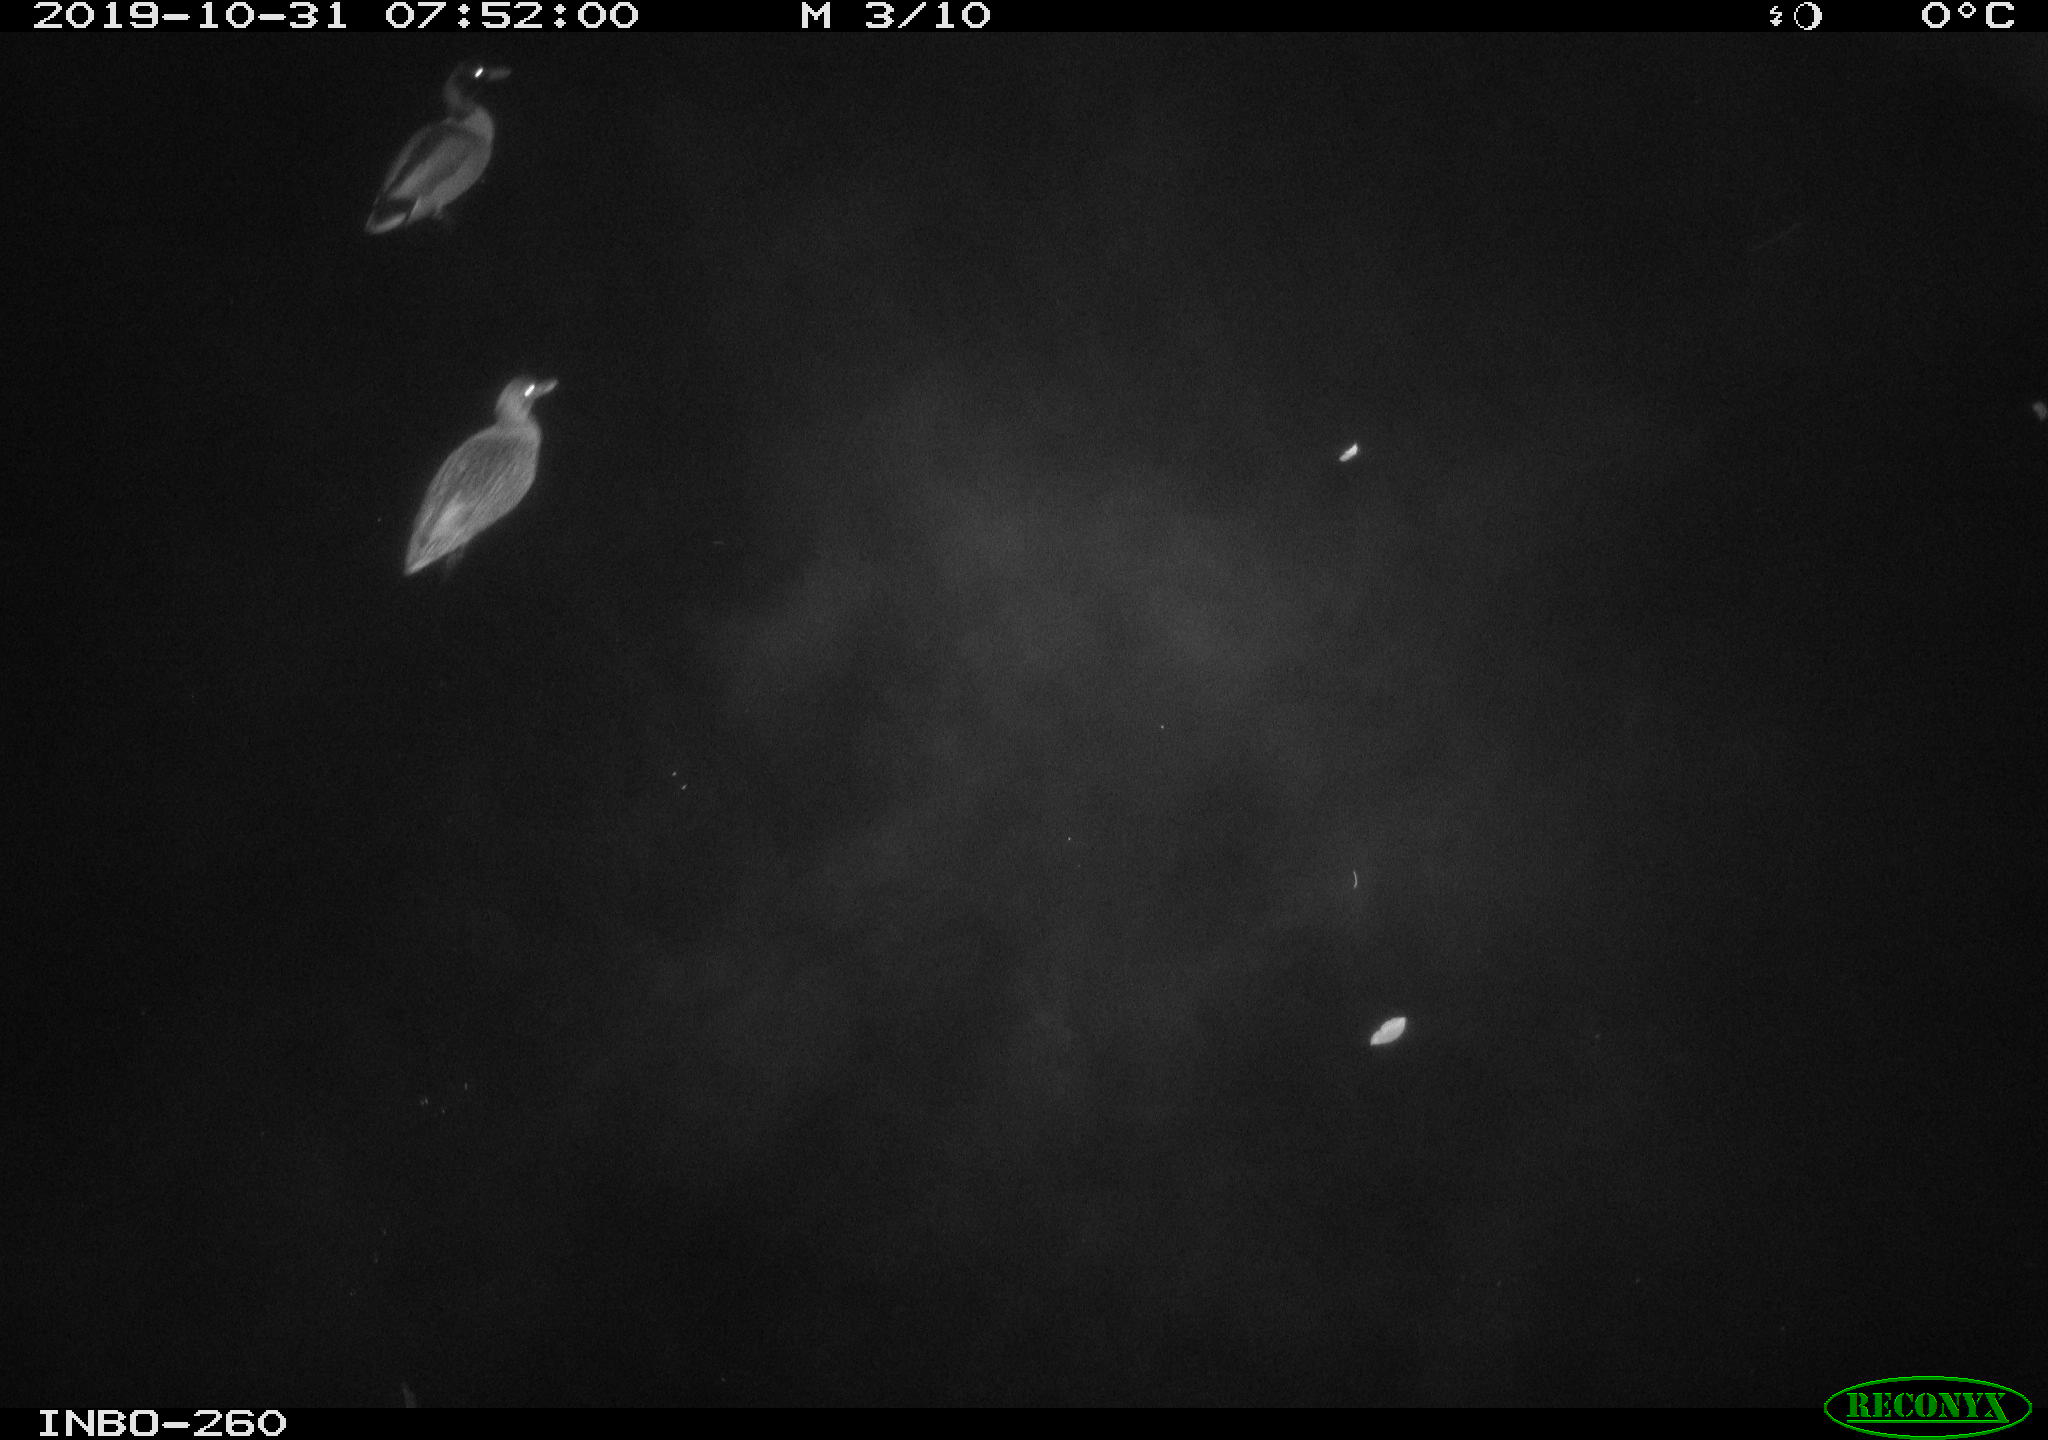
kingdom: Animalia
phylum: Chordata
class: Aves
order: Anseriformes
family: Anatidae
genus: Anas
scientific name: Anas platyrhynchos
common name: Mallard
